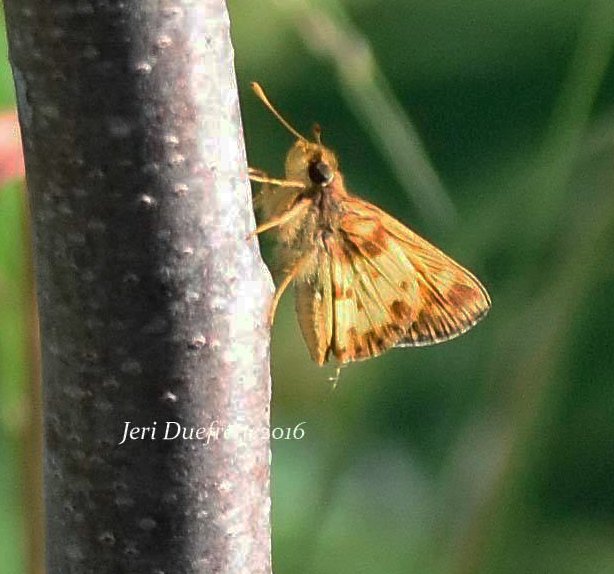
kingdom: Animalia
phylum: Arthropoda
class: Insecta
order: Lepidoptera
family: Hesperiidae
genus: Lon
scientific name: Lon zabulon
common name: Zabulon Skipper
